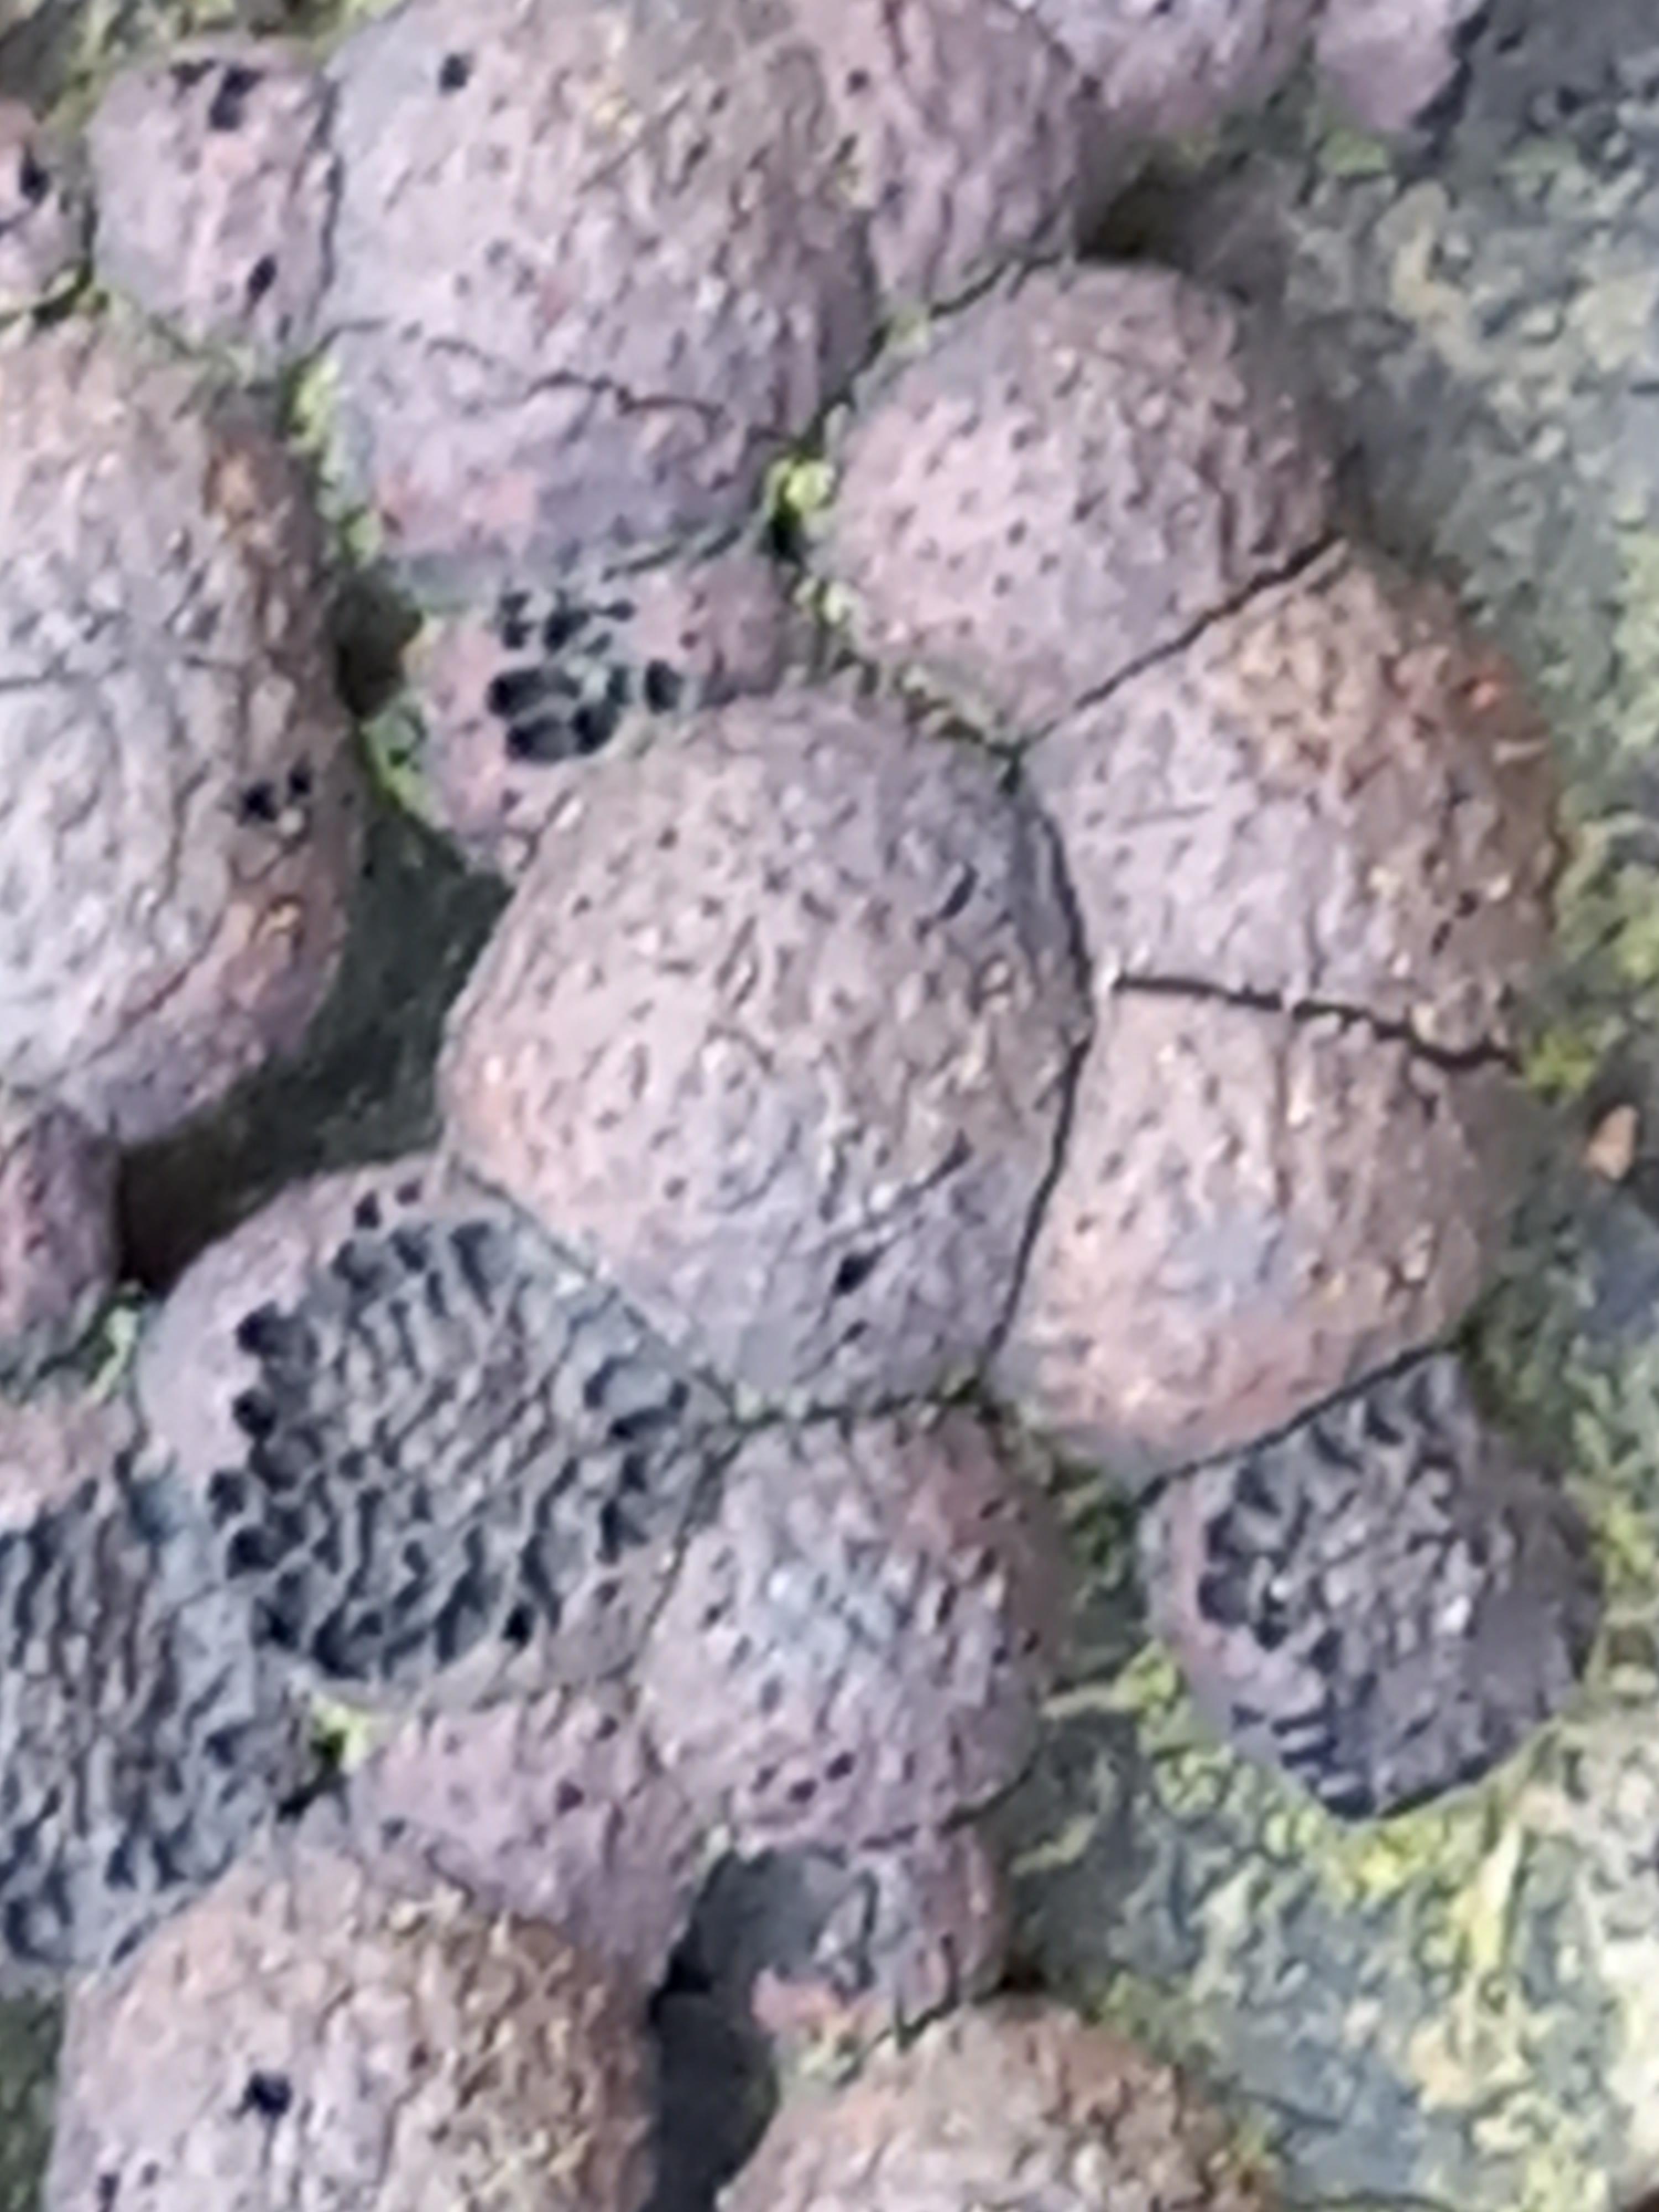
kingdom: Fungi
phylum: Ascomycota
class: Sordariomycetes
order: Xylariales
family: Hypoxylaceae
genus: Hypoxylon
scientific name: Hypoxylon fragiforme
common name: kuljordbær
